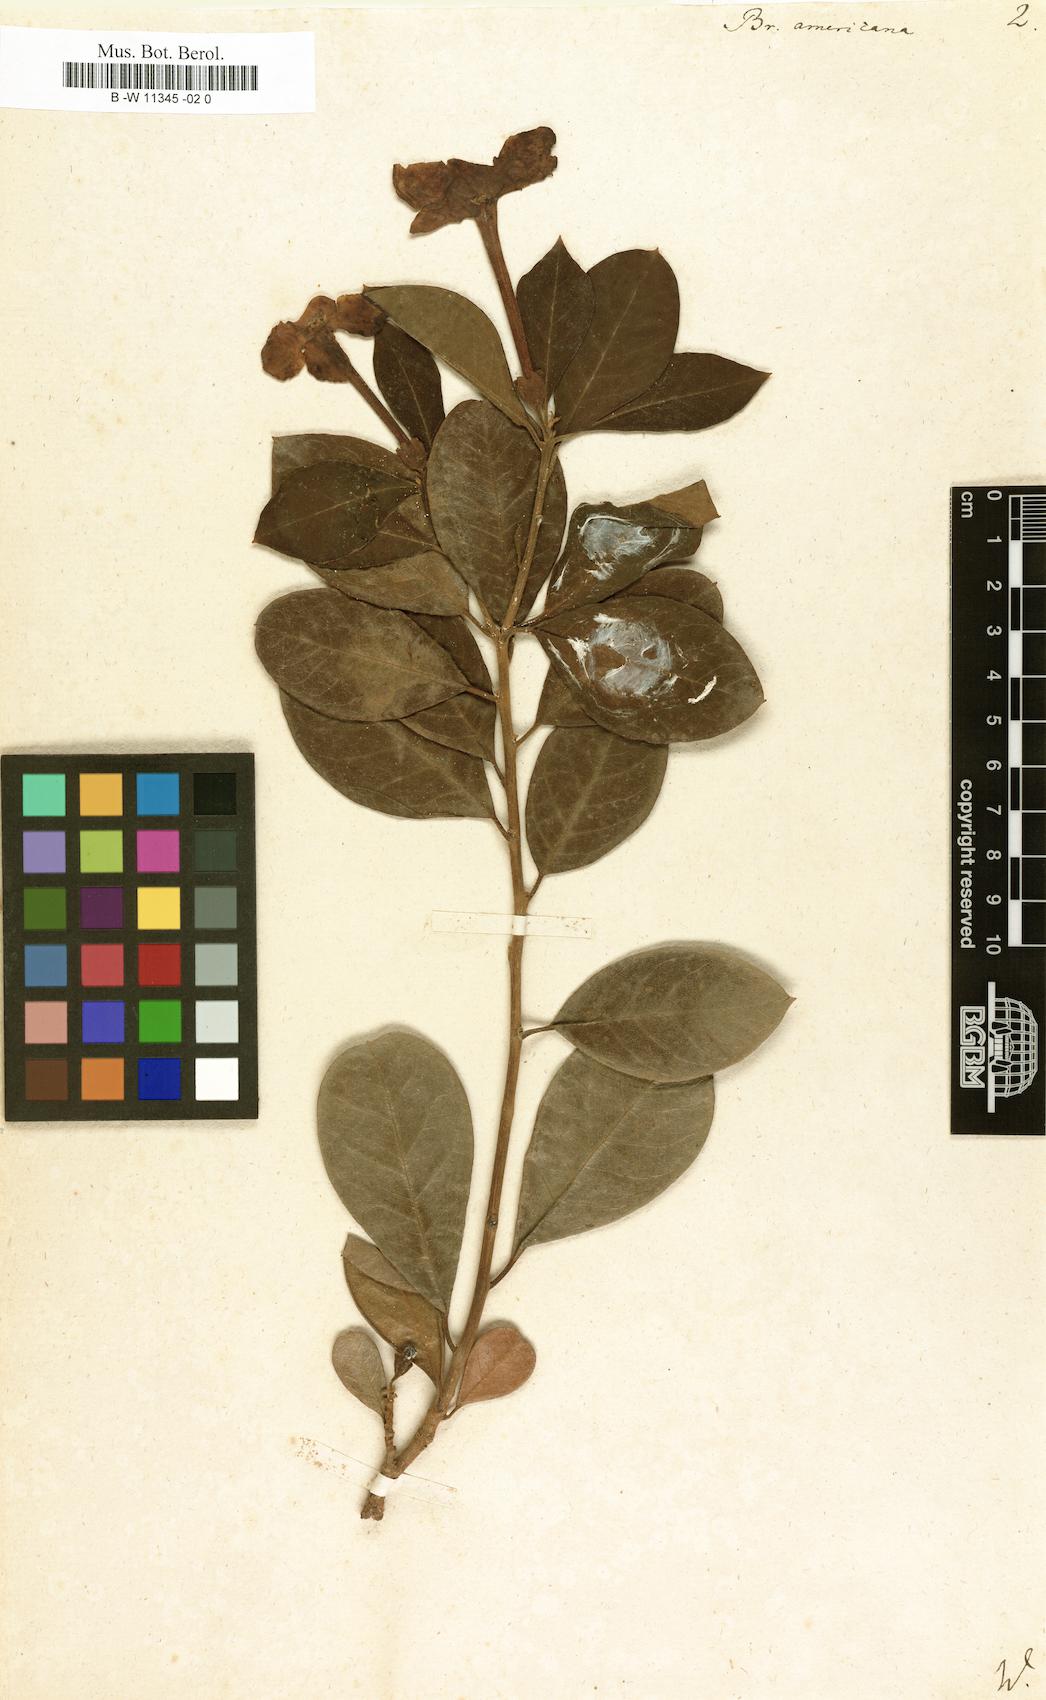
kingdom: Plantae
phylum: Tracheophyta
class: Magnoliopsida
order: Solanales
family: Solanaceae
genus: Brunfelsia
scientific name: Brunfelsia americana
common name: Lady-of-the-night
